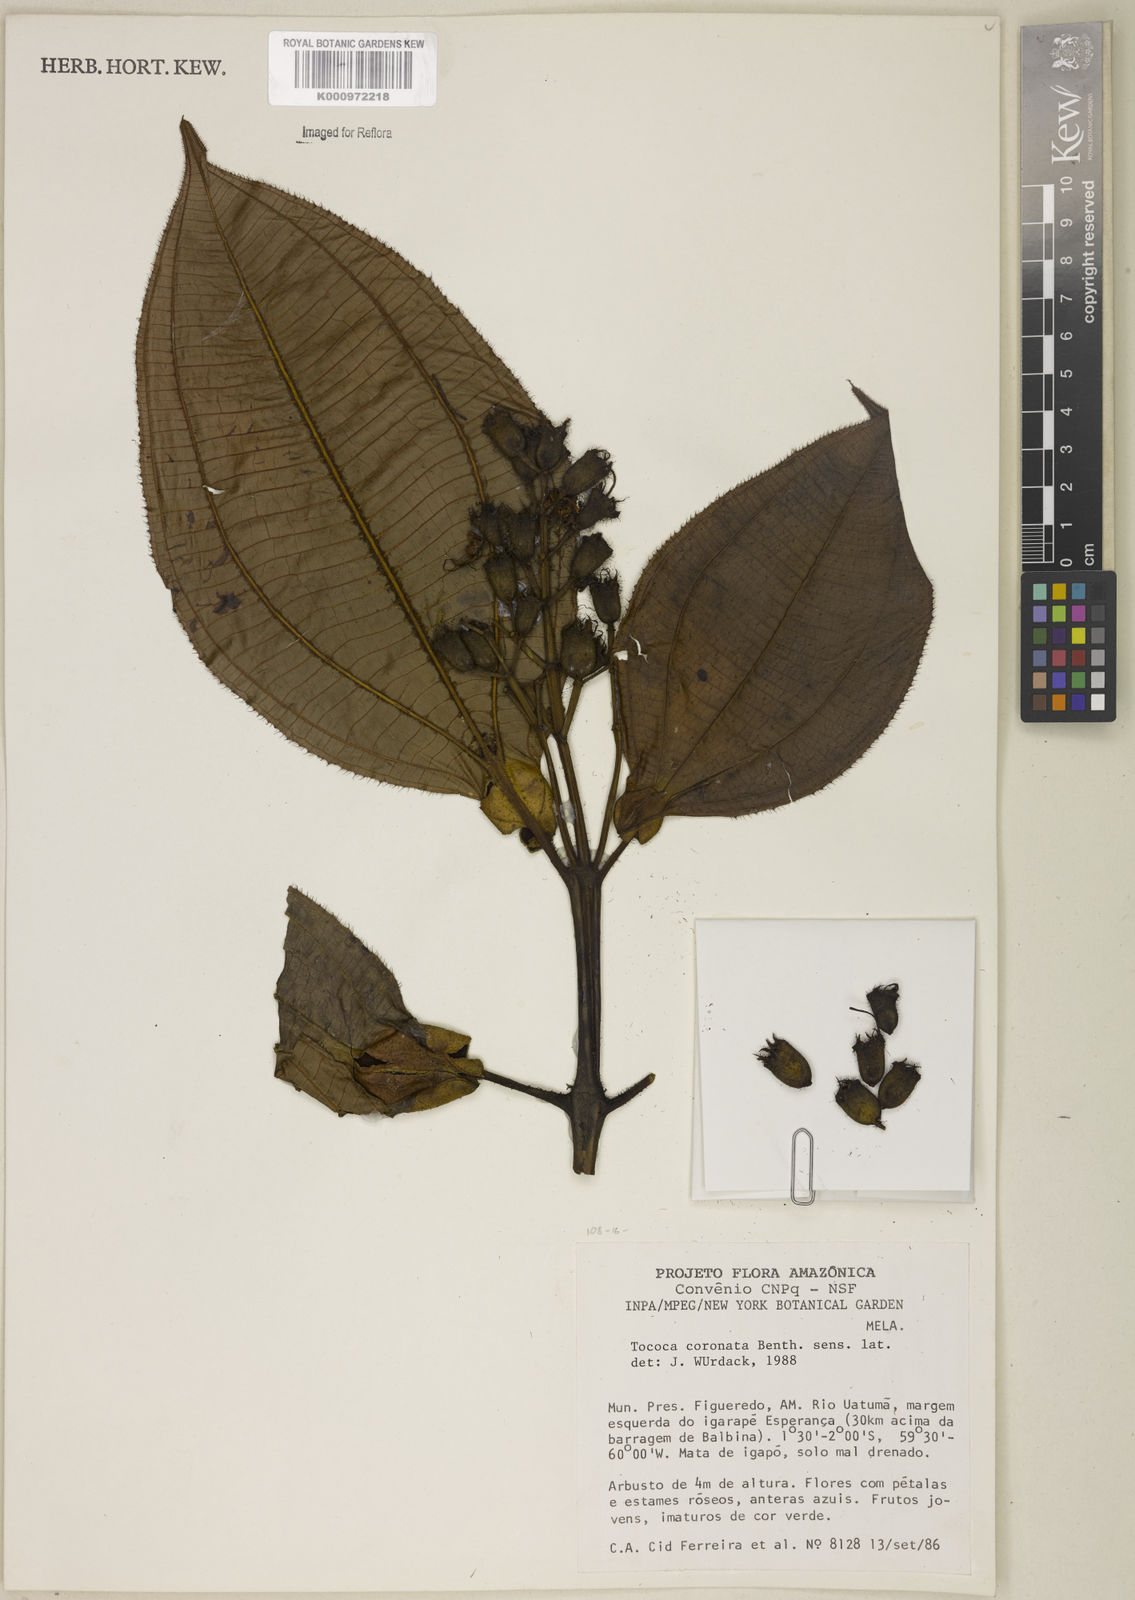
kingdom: Plantae
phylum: Tracheophyta
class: Magnoliopsida
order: Myrtales
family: Melastomataceae
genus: Miconia
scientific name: Miconia tococoronata
